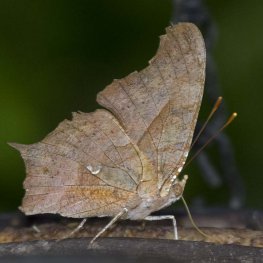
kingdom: Animalia
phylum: Arthropoda
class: Insecta
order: Lepidoptera
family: Nymphalidae
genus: Polygonia
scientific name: Polygonia interrogationis
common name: Question Mark
